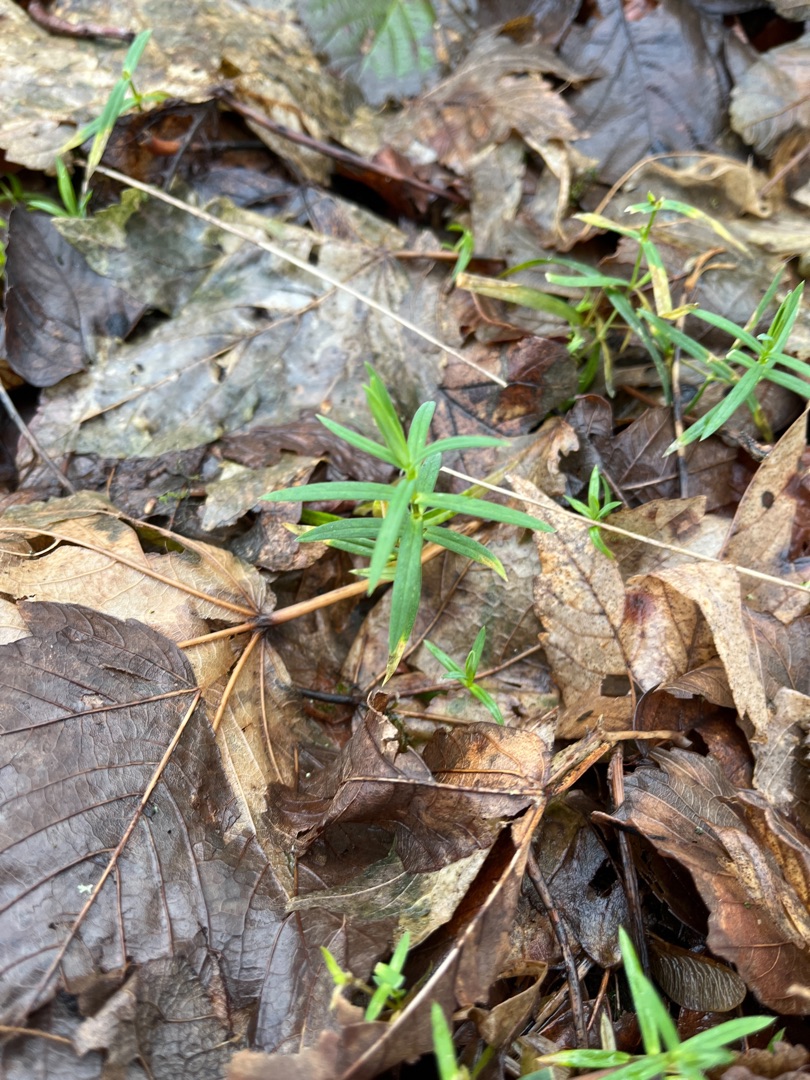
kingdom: Plantae
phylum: Tracheophyta
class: Magnoliopsida
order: Caryophyllales
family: Caryophyllaceae
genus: Rabelera
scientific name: Rabelera holostea
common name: Stor fladstjerne
